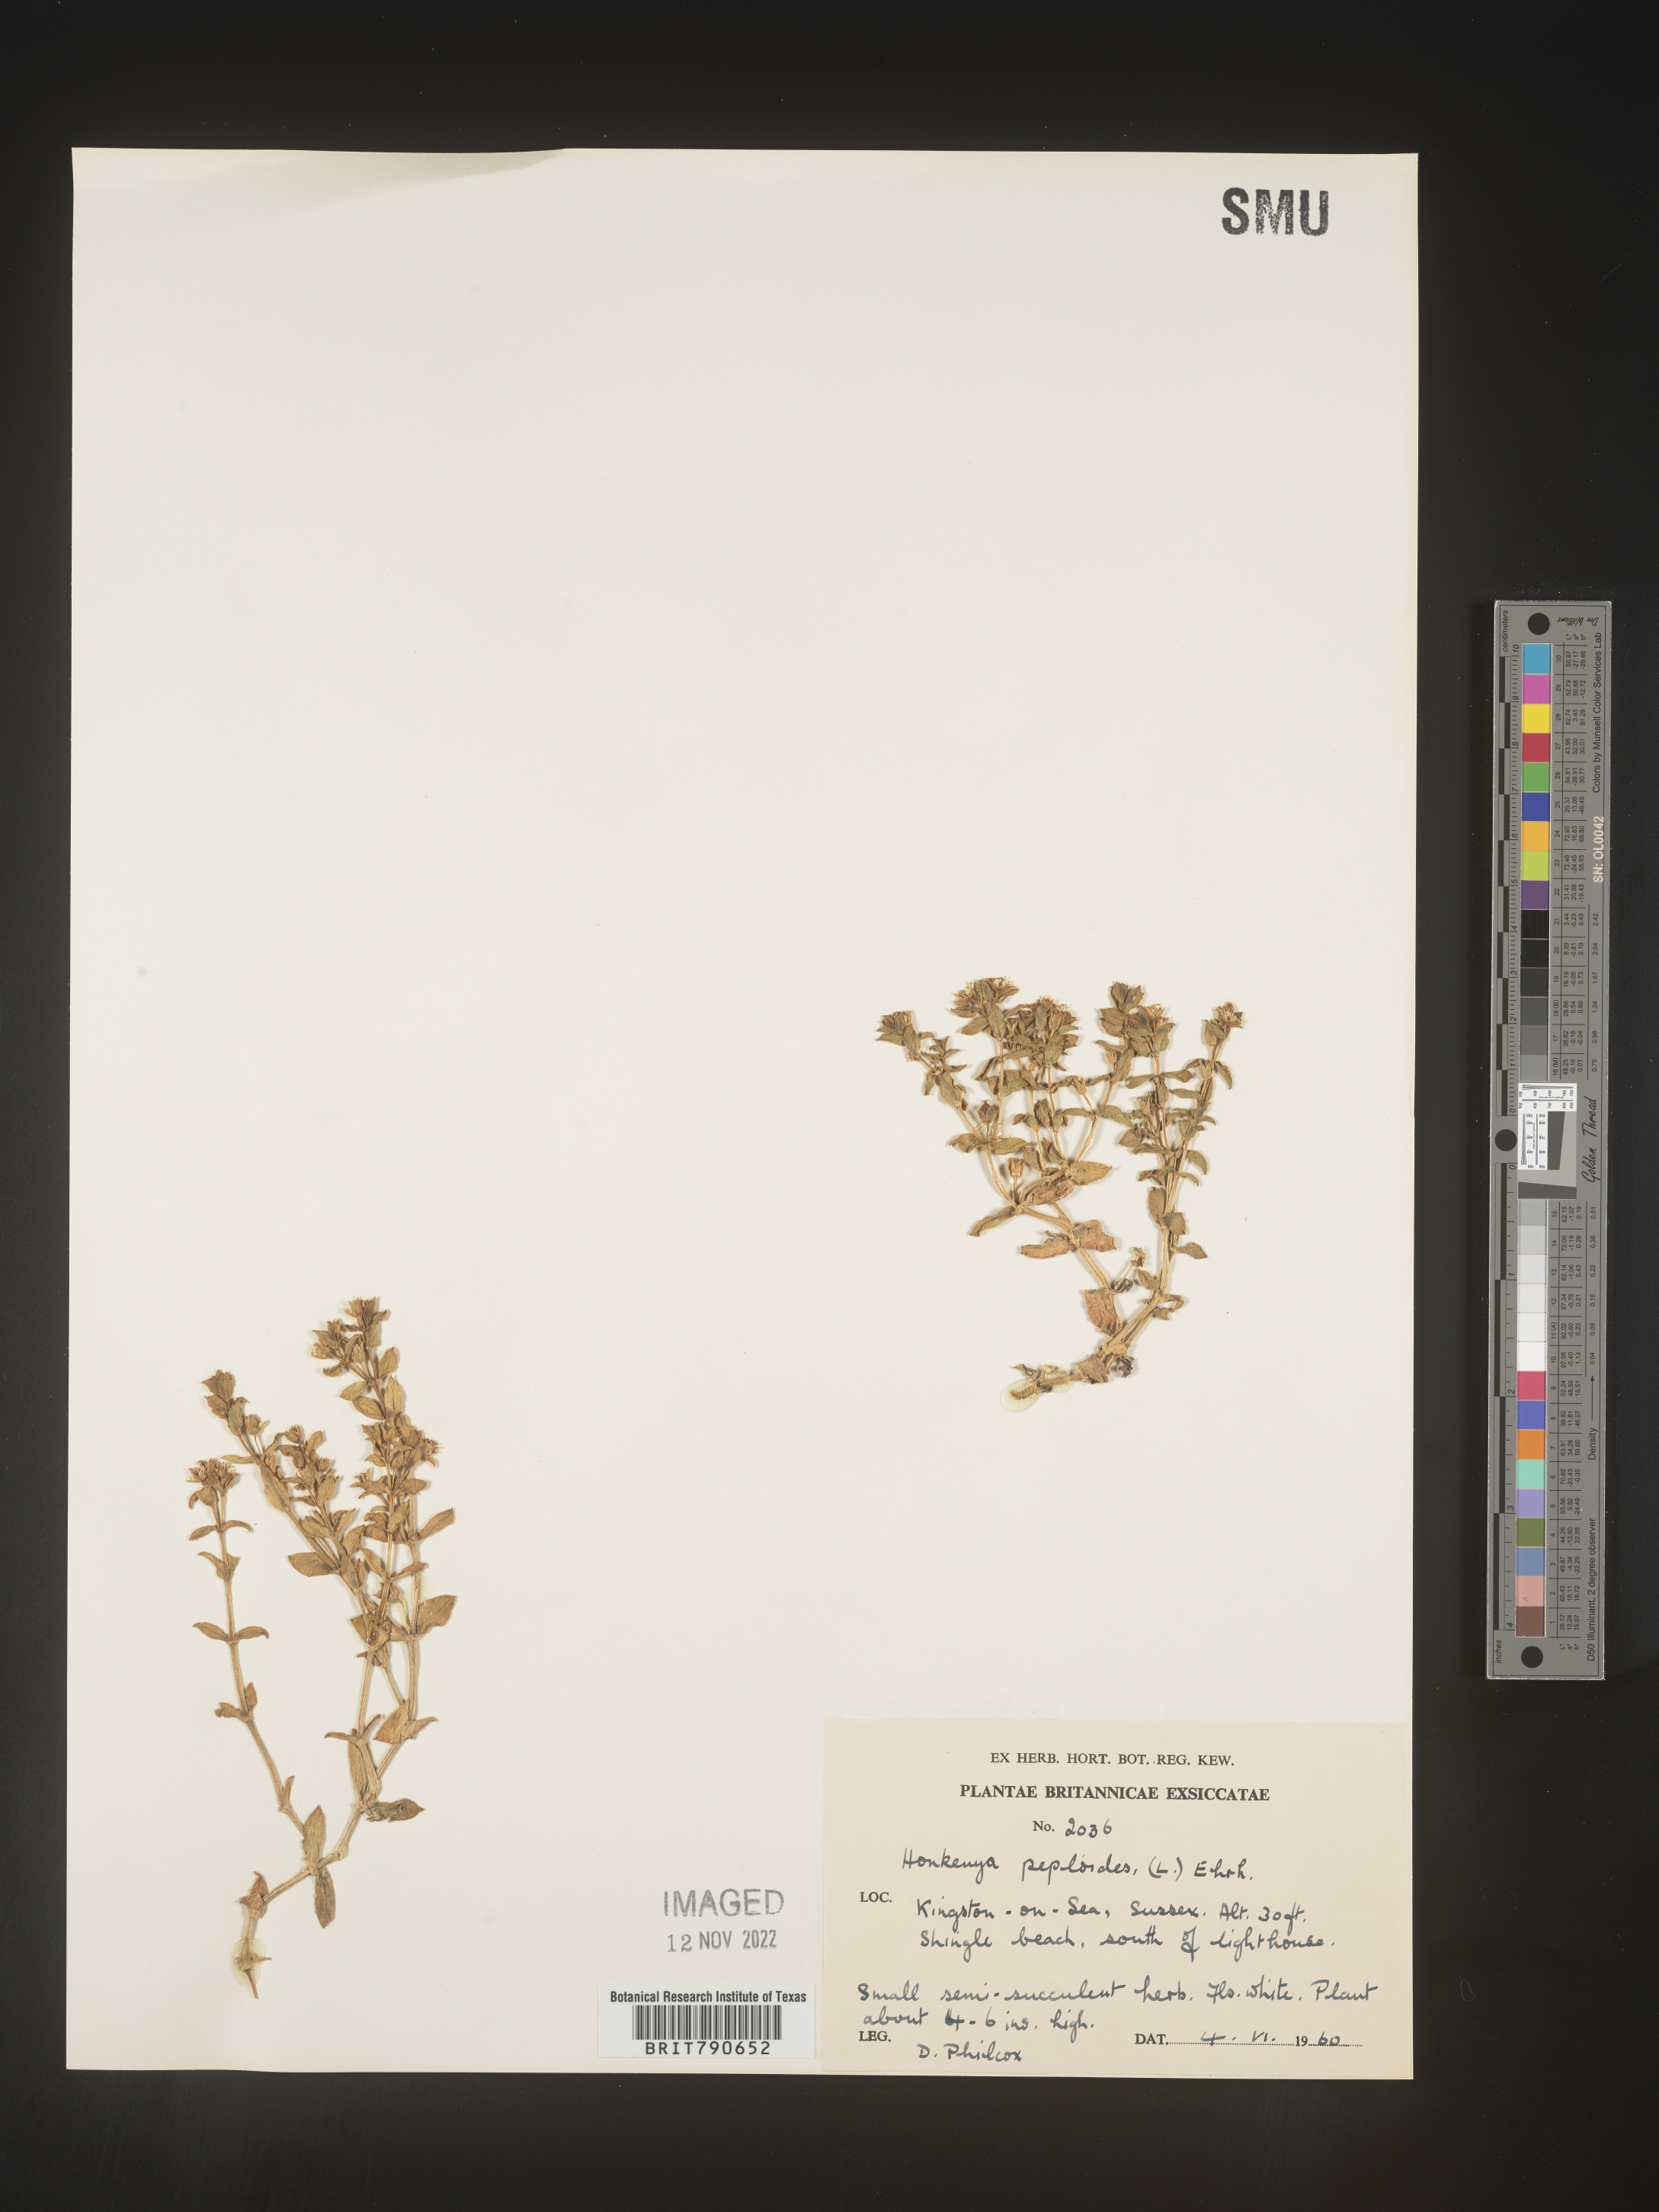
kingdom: Plantae
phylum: Tracheophyta
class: Magnoliopsida
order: Malvales
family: Malvaceae
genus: Clappertonia
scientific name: Clappertonia
